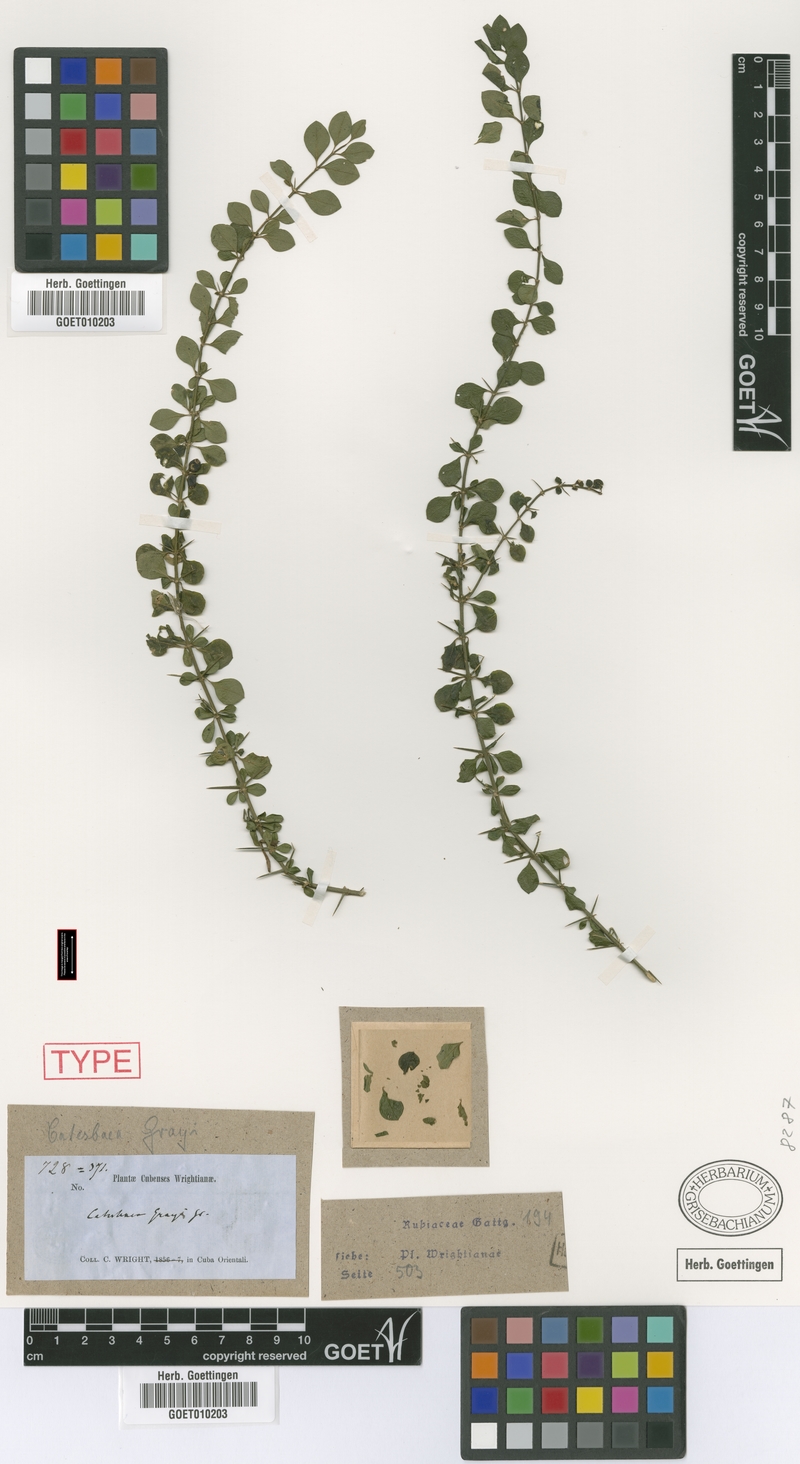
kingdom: Plantae
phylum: Tracheophyta
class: Magnoliopsida
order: Gentianales
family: Rubiaceae
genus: Catesbaea
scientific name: Catesbaea grayi
